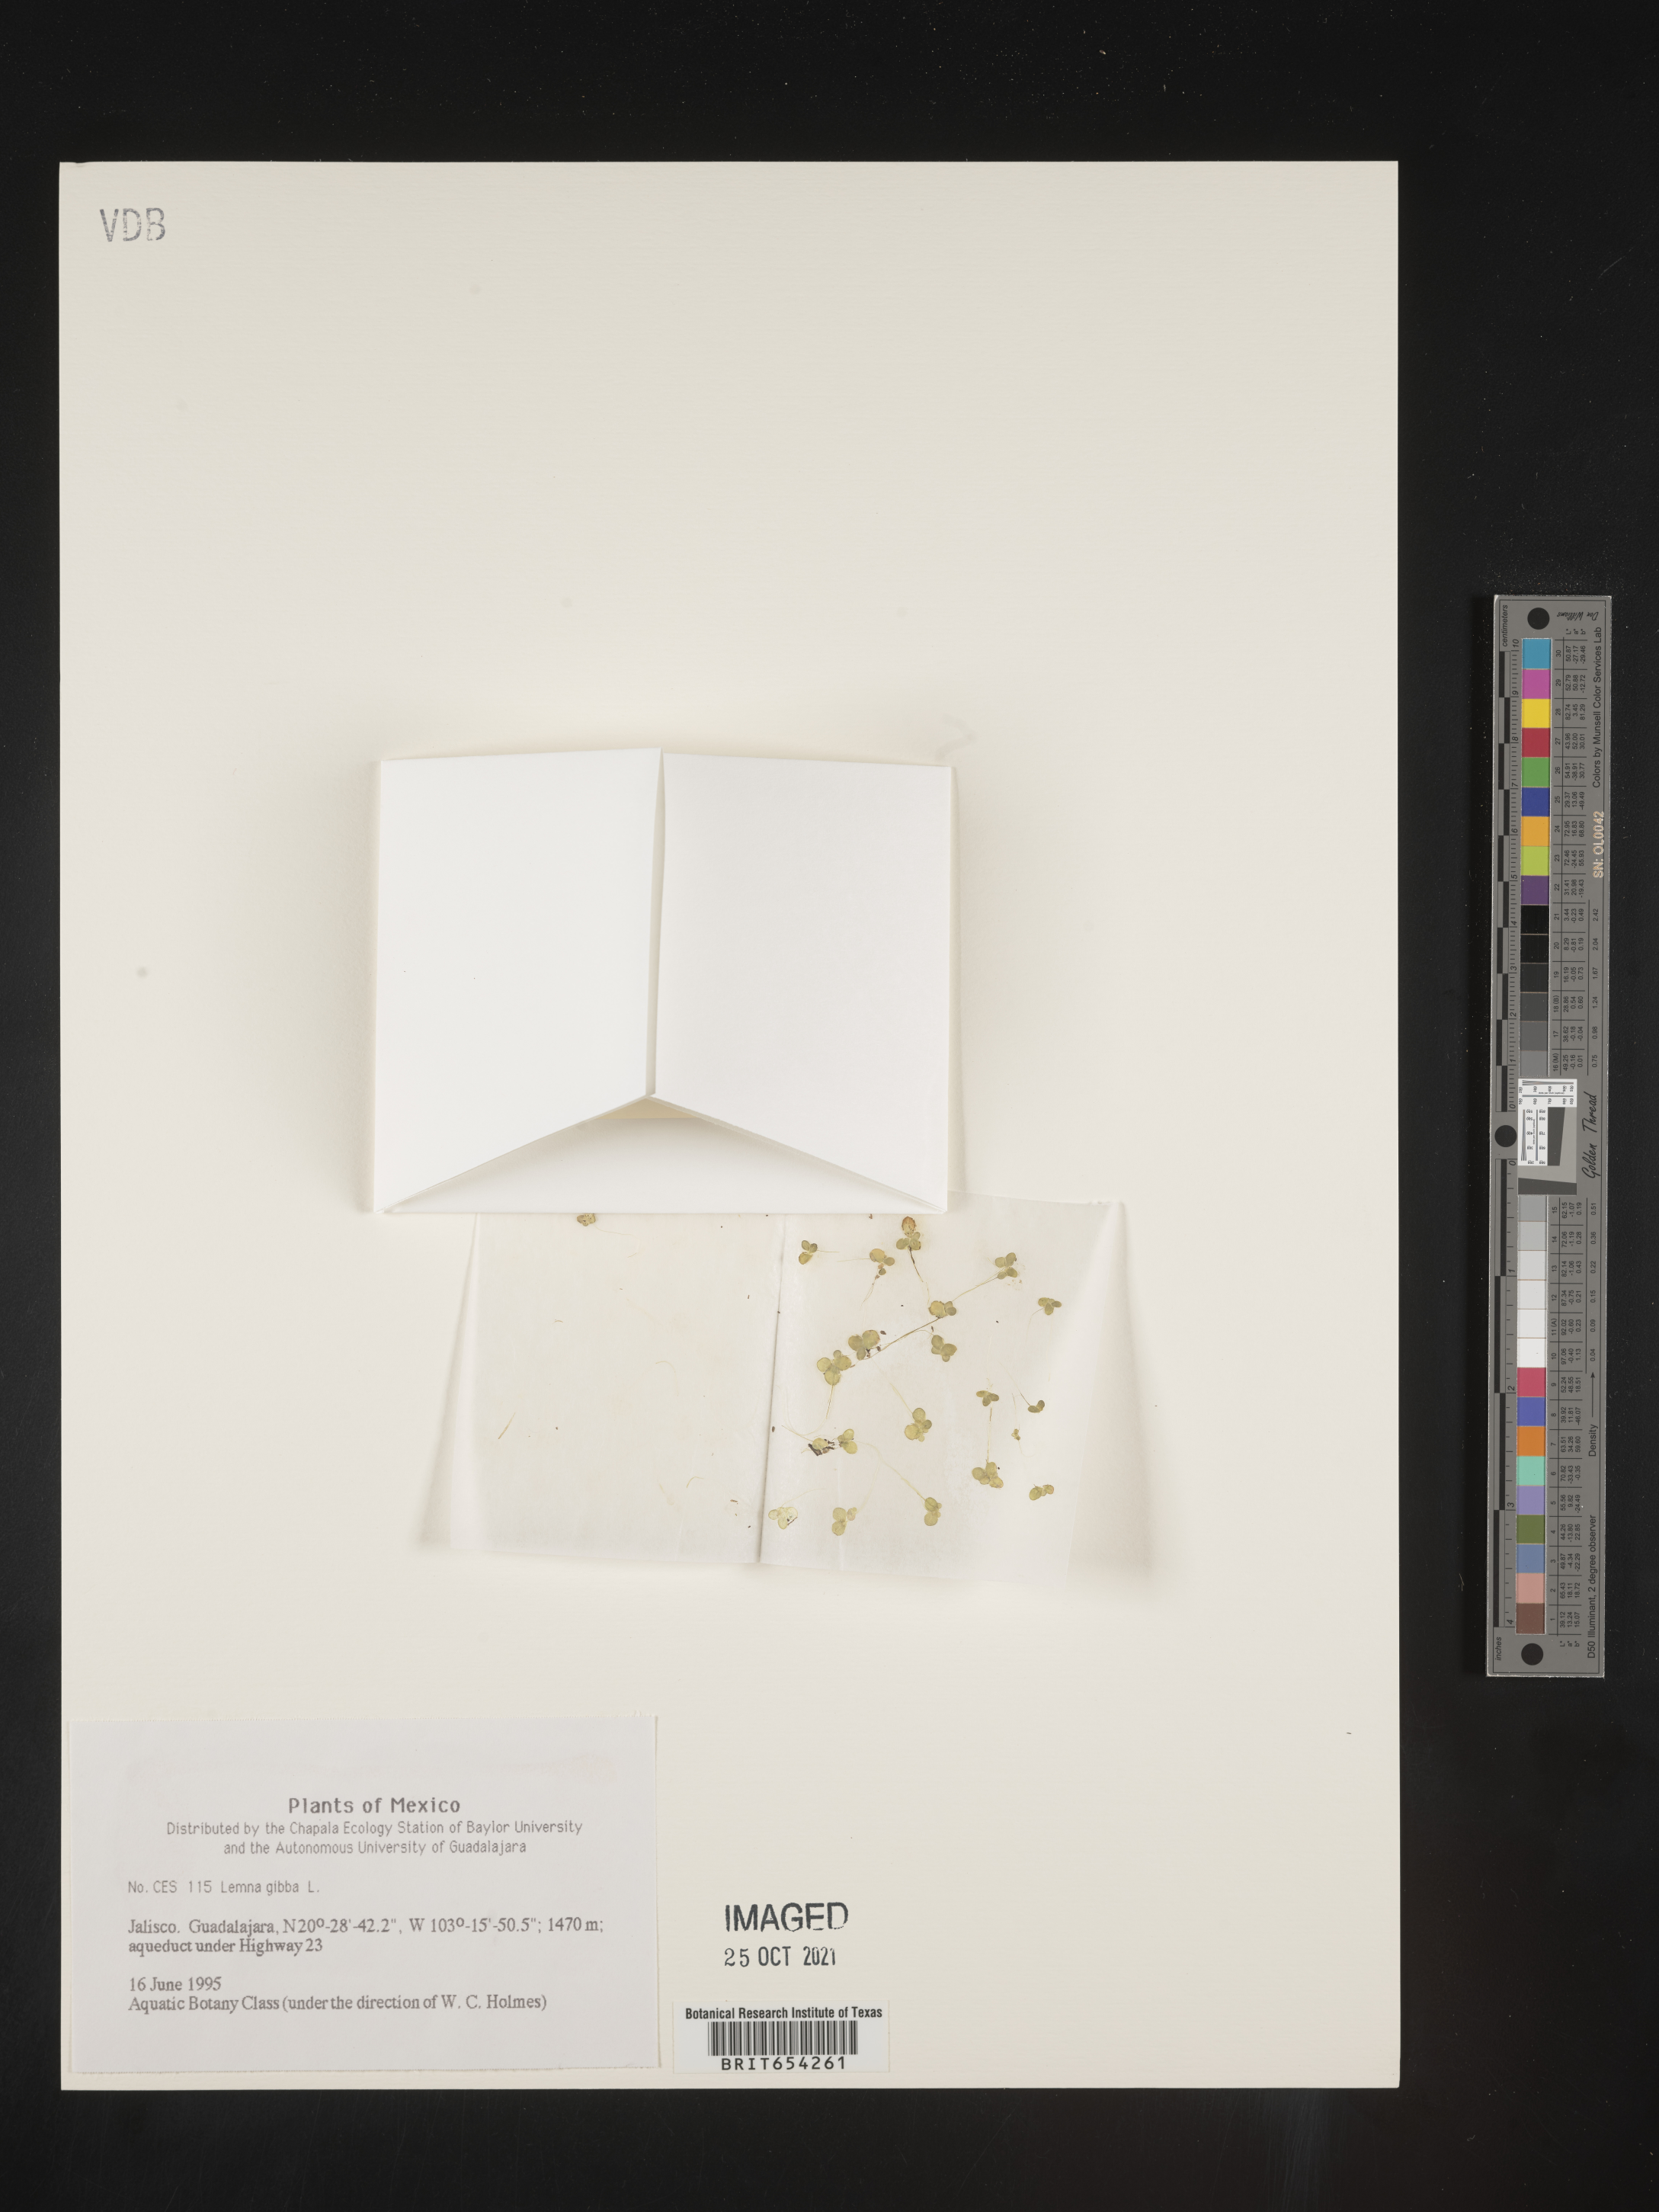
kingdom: Plantae
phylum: Tracheophyta
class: Liliopsida
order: Alismatales
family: Araceae
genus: Lemna
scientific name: Lemna
